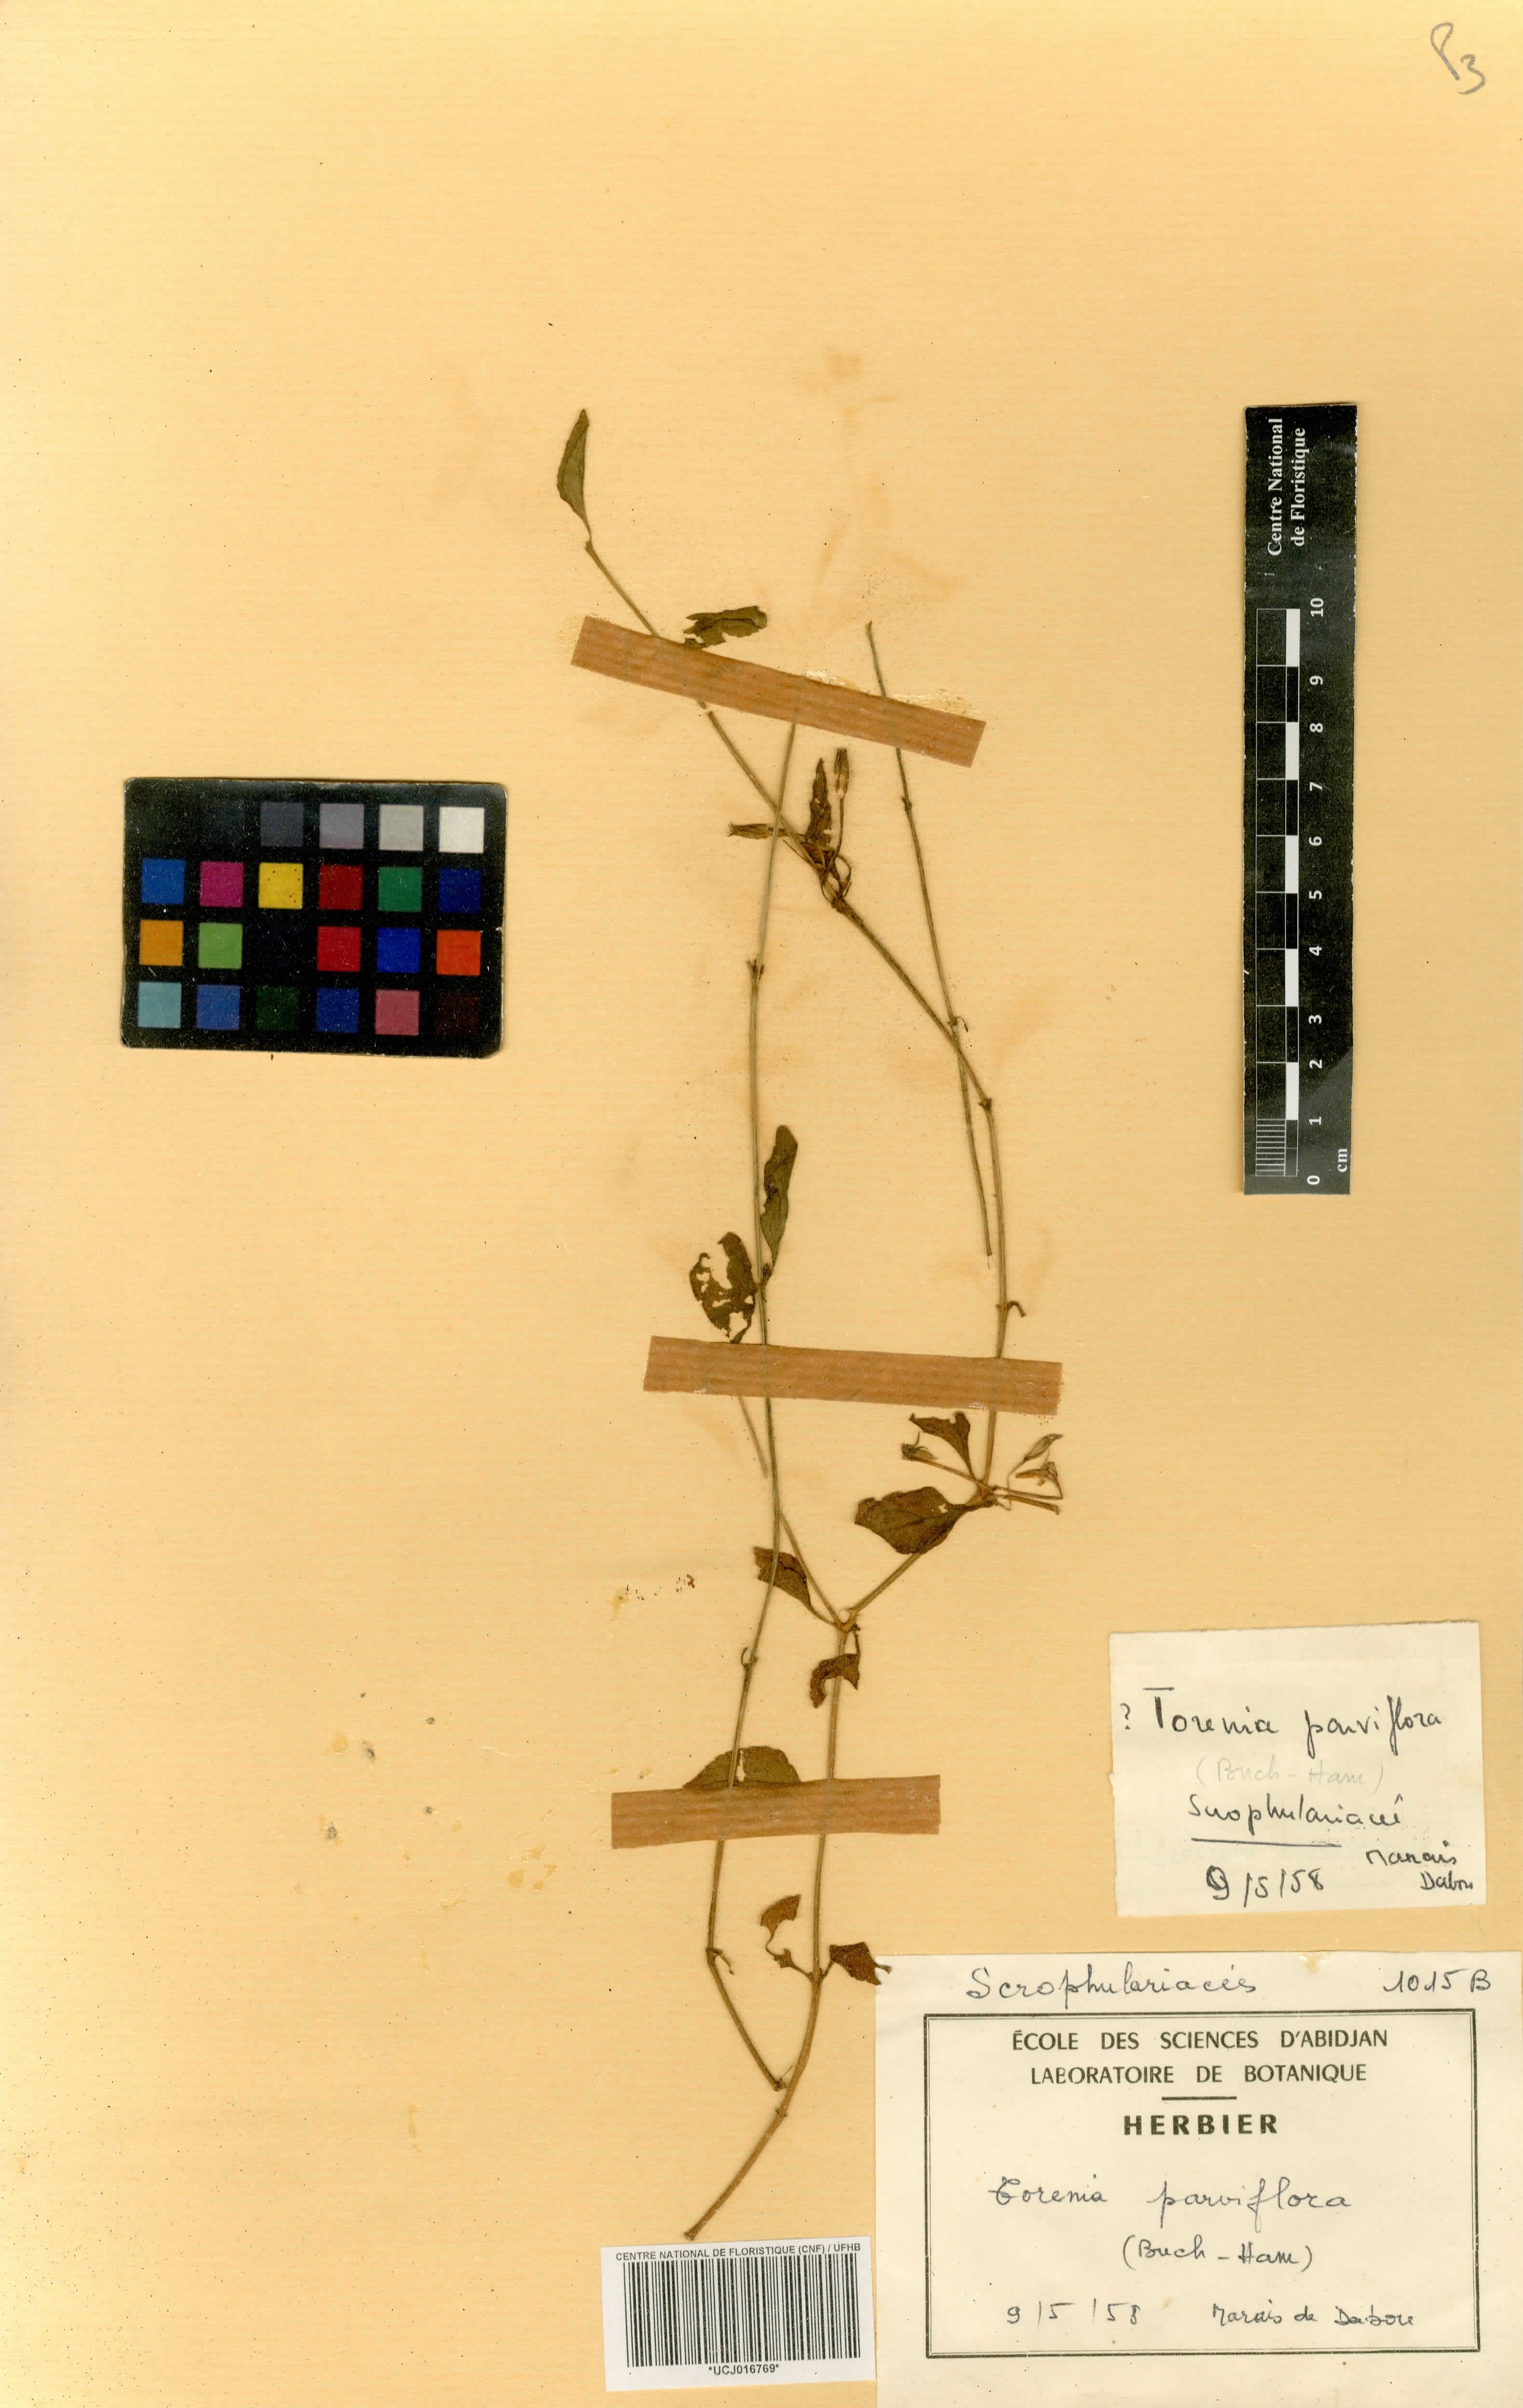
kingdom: Plantae
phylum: Tracheophyta
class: Magnoliopsida
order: Lamiales
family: Linderniaceae
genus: Torenia
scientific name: Torenia thouarsii
